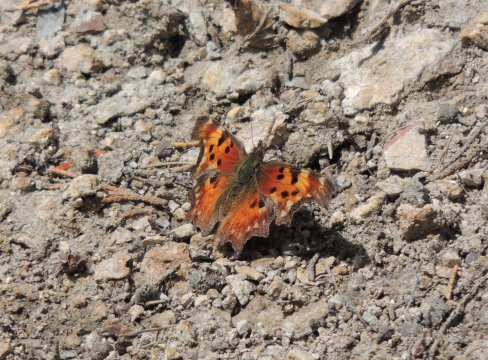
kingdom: Animalia
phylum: Arthropoda
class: Insecta
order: Lepidoptera
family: Nymphalidae
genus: Polygonia
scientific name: Polygonia gracilis
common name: Hoary Comma
